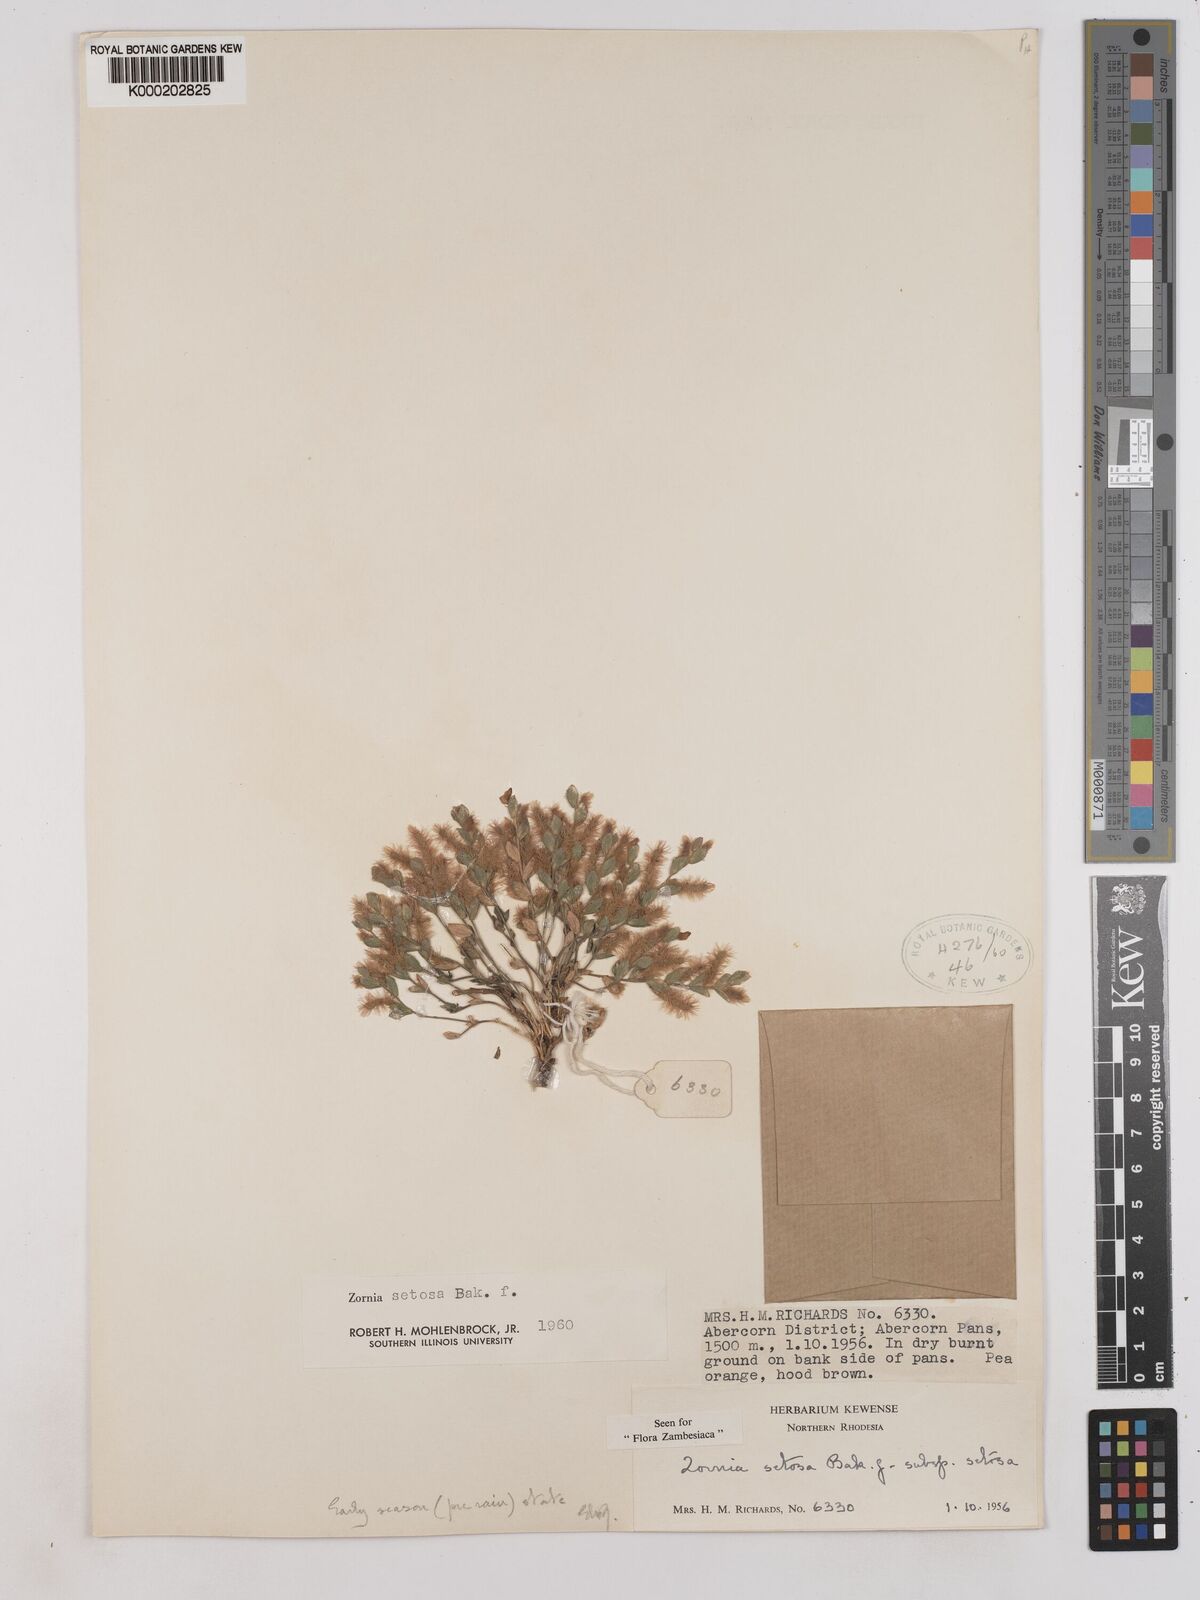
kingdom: Plantae
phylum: Tracheophyta
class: Magnoliopsida
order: Fabales
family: Fabaceae
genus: Zornia
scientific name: Zornia setosa
